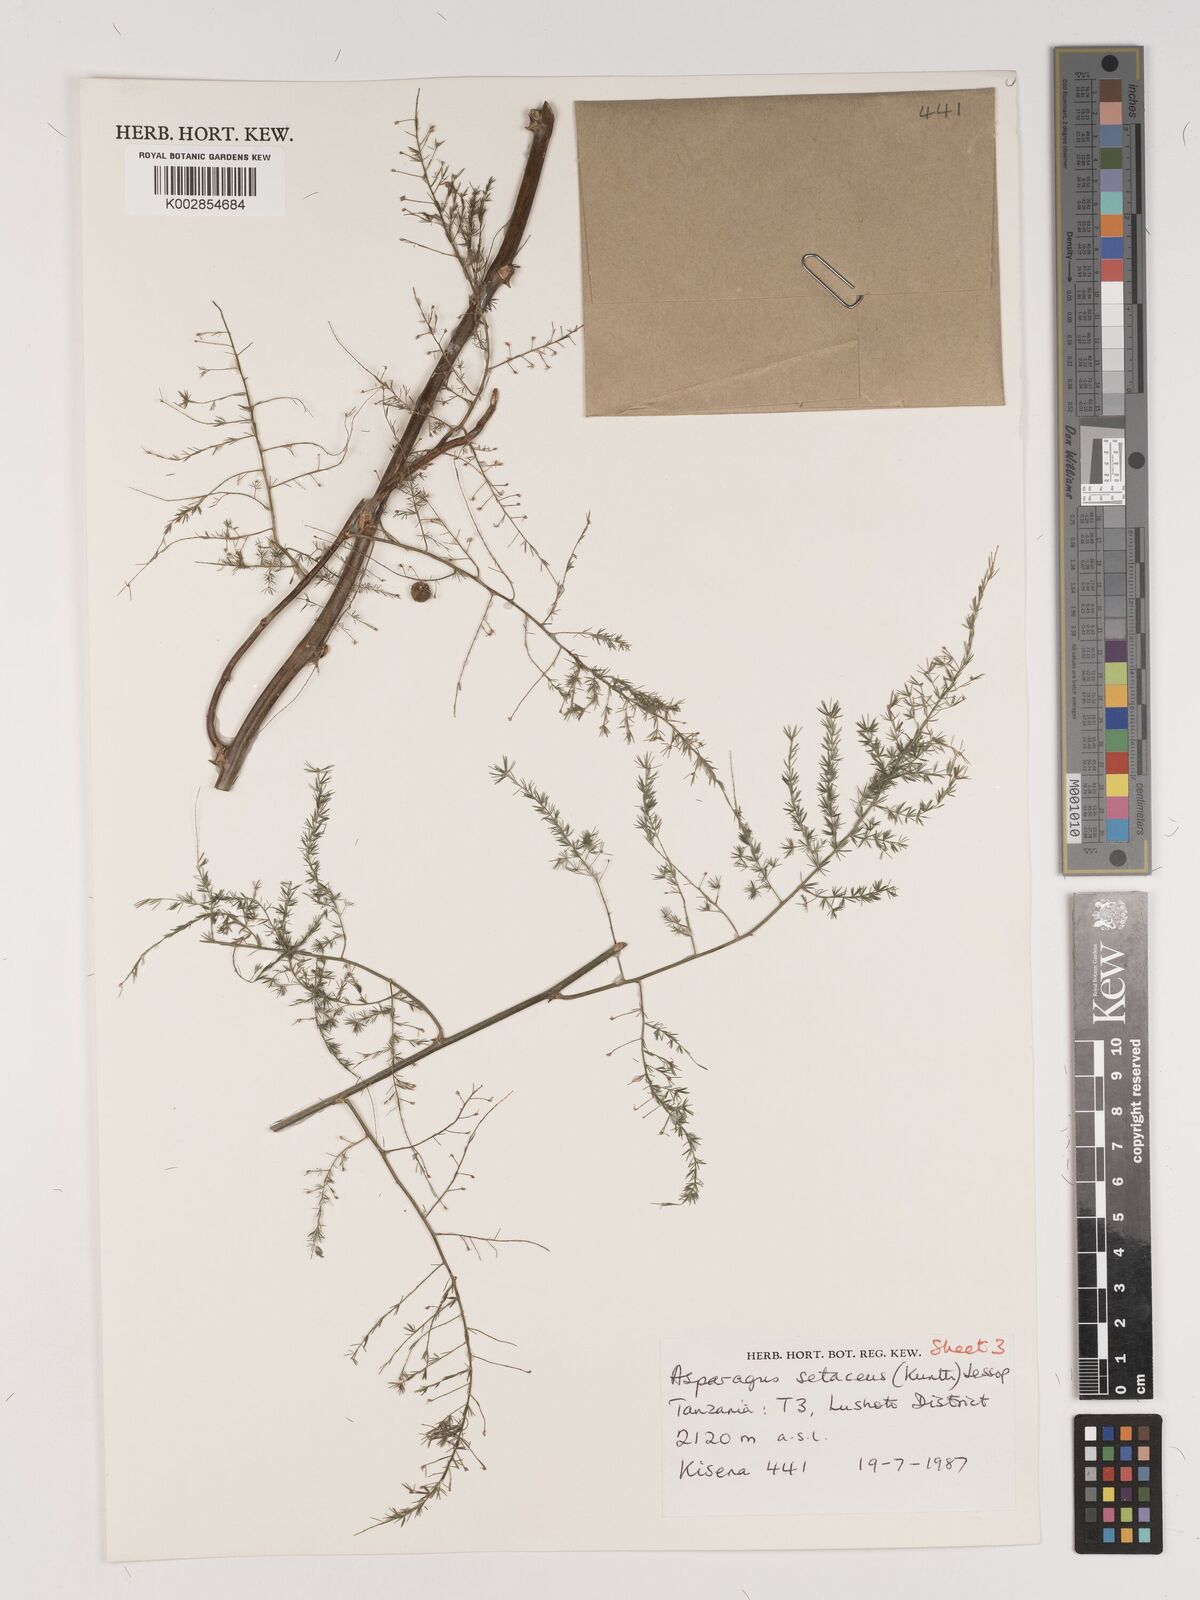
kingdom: Plantae
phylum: Tracheophyta
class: Liliopsida
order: Asparagales
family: Asparagaceae
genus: Asparagus
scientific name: Asparagus setaceus
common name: Common asparagus fern
